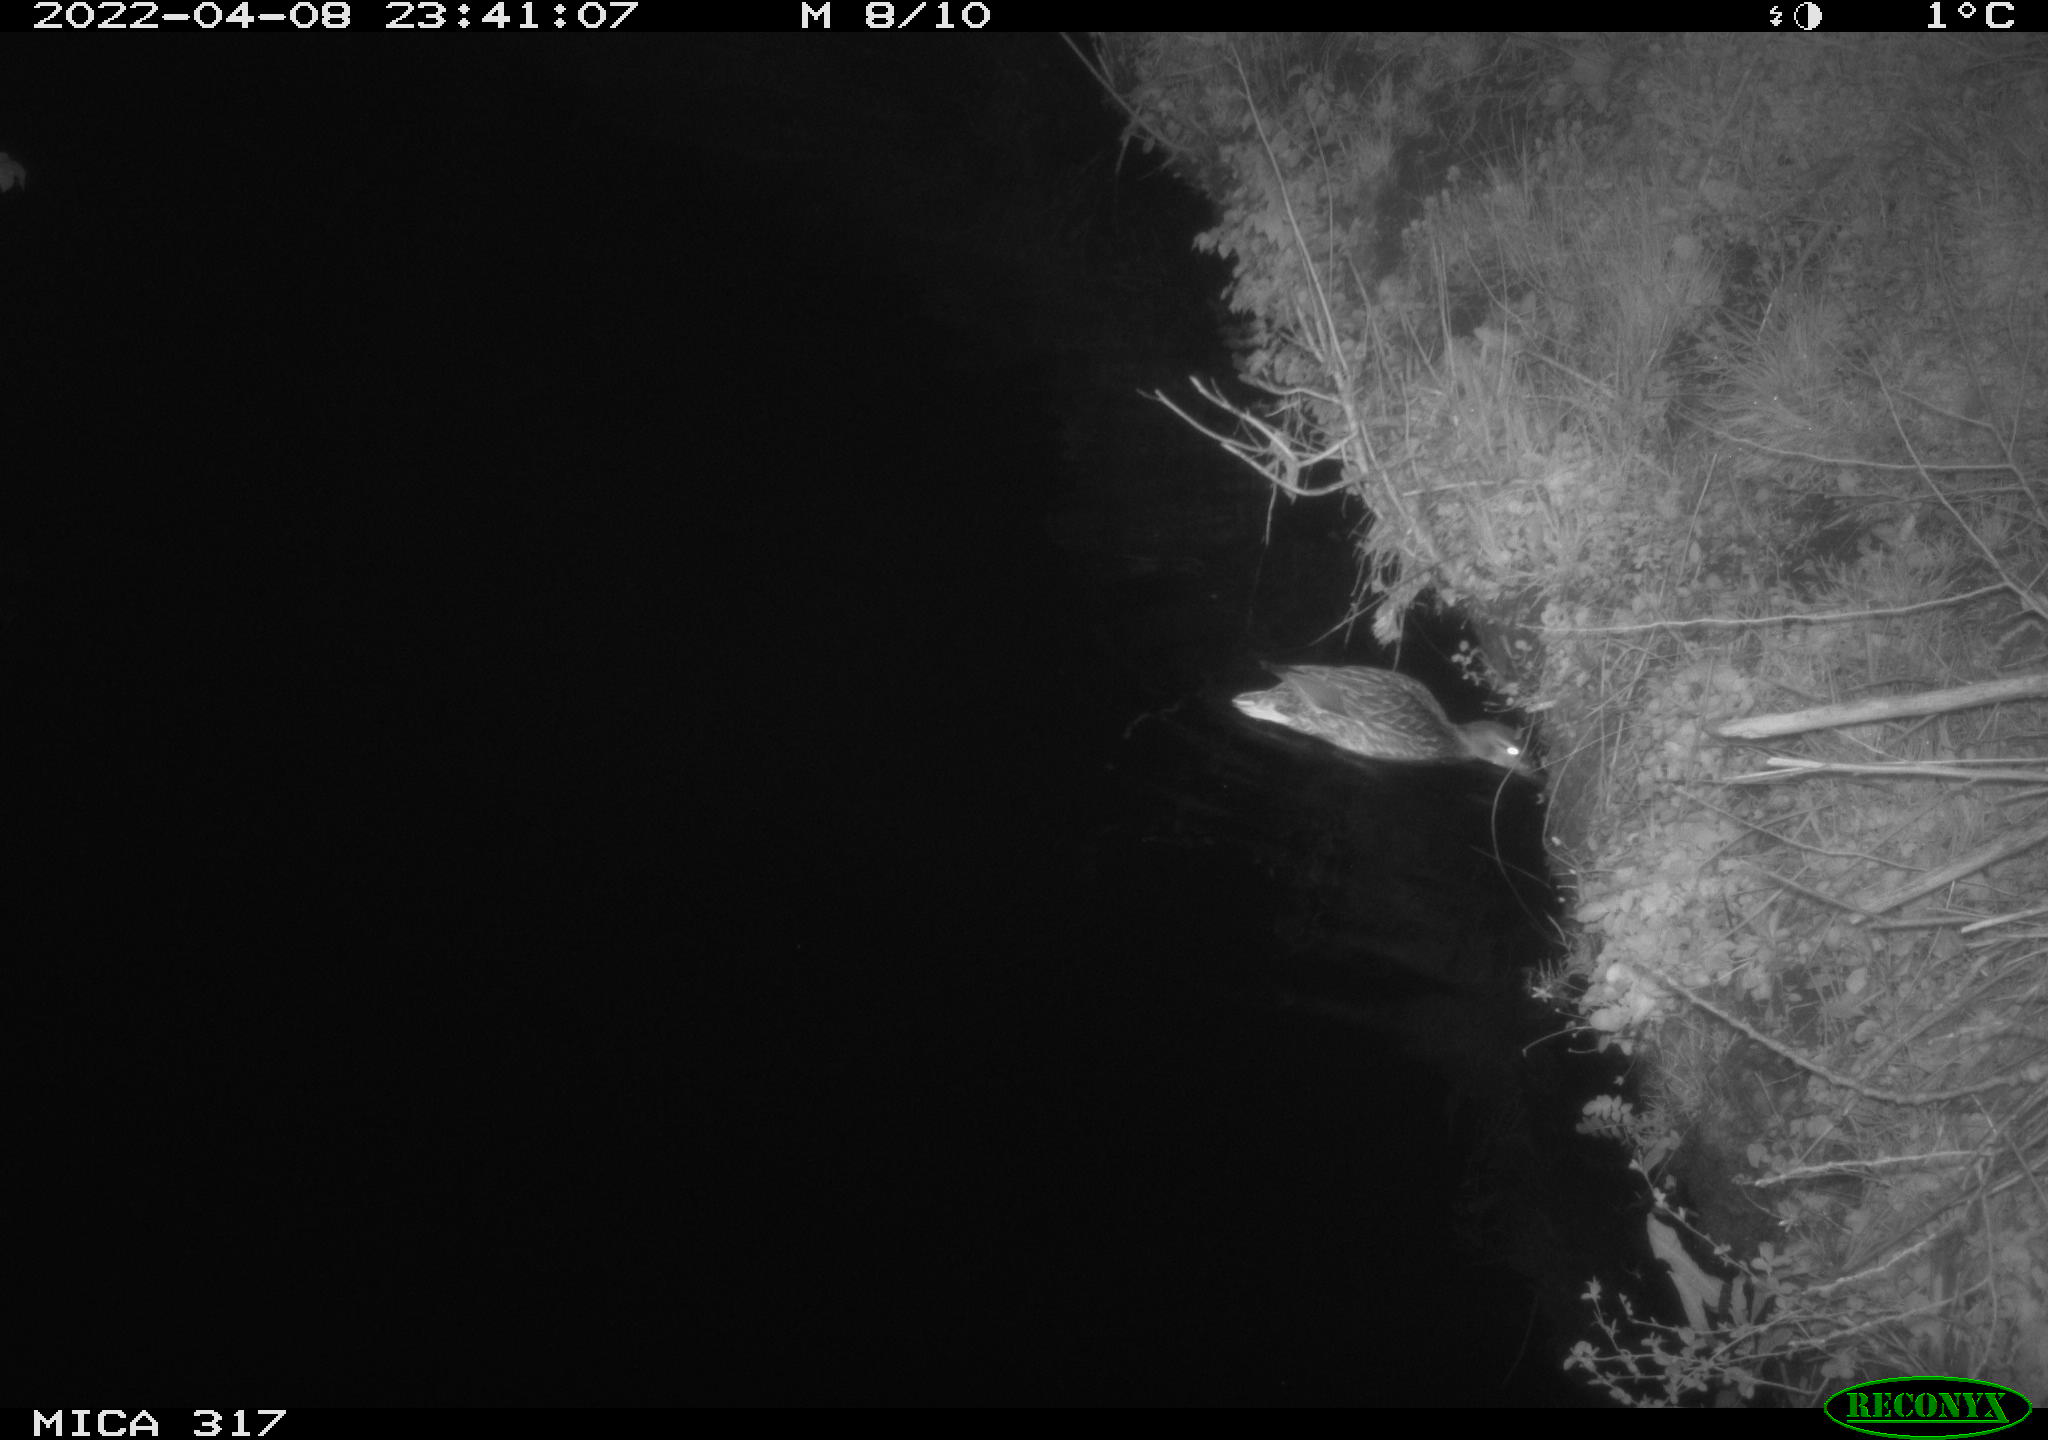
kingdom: Animalia
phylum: Chordata
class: Aves
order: Anseriformes
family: Anatidae
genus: Anas
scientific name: Anas platyrhynchos
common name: Mallard
